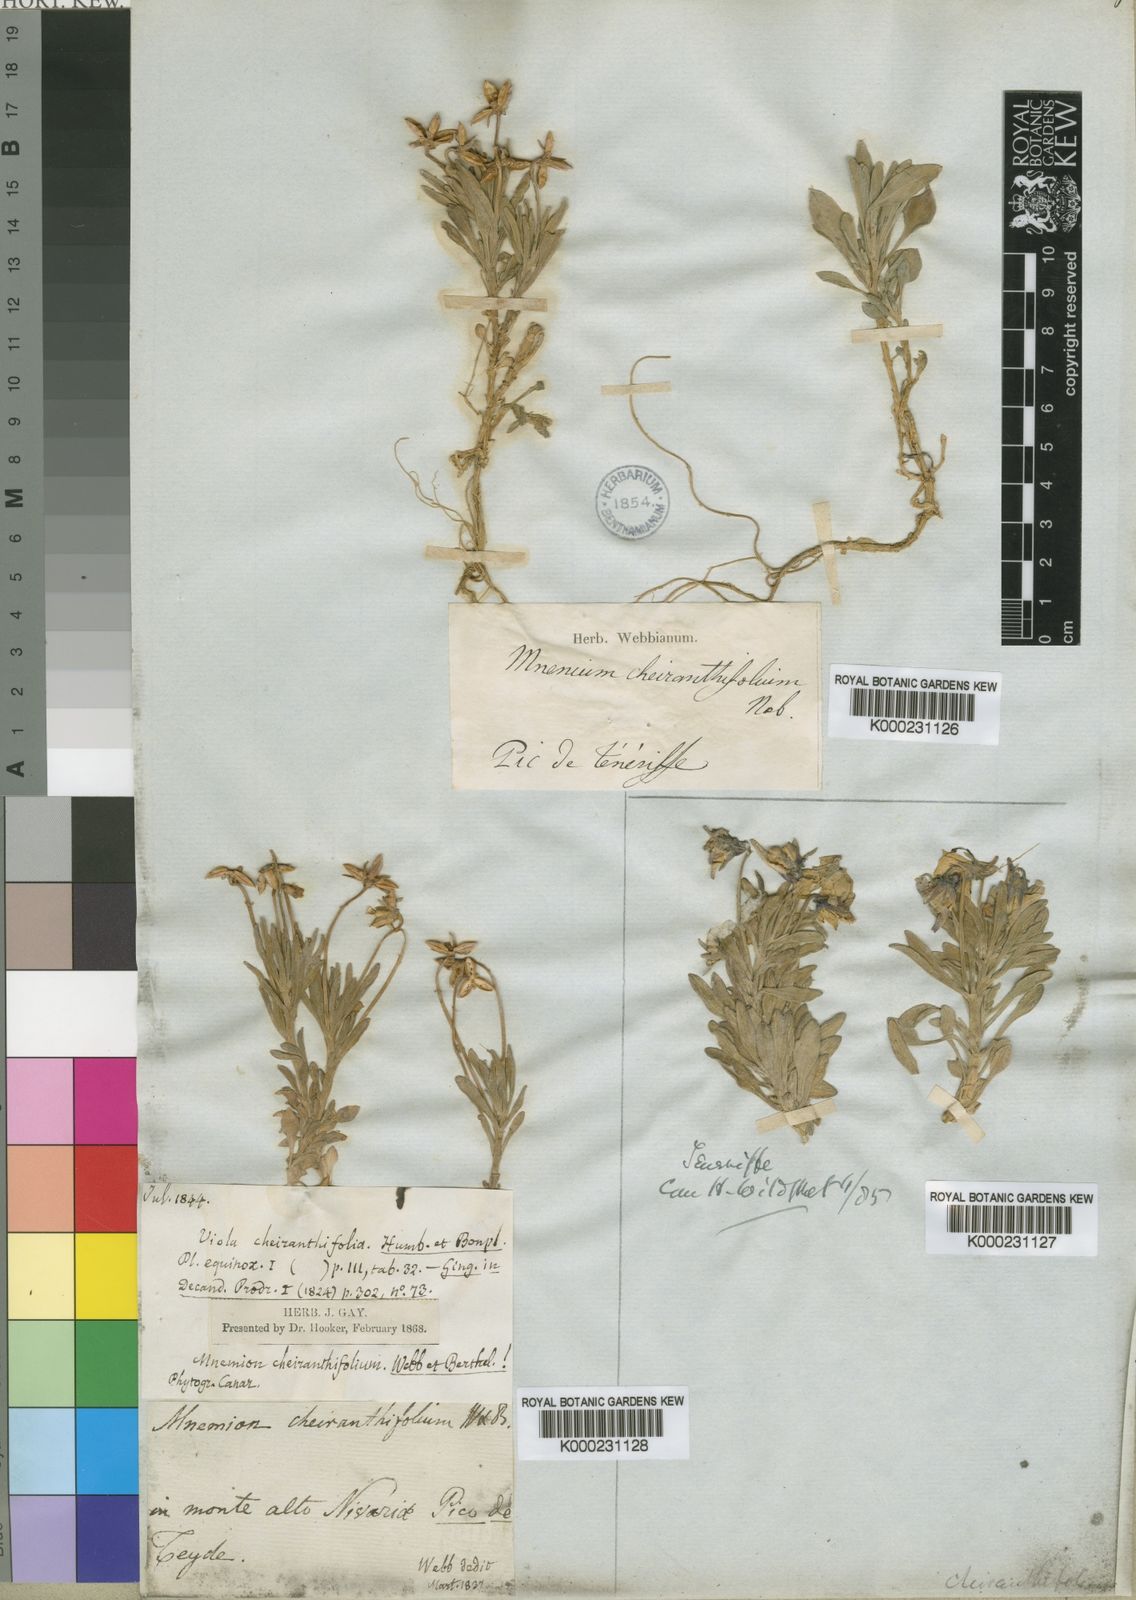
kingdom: Plantae
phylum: Tracheophyta
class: Magnoliopsida
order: Malpighiales
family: Violaceae
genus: Viola
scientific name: Viola cheiranthifolia
